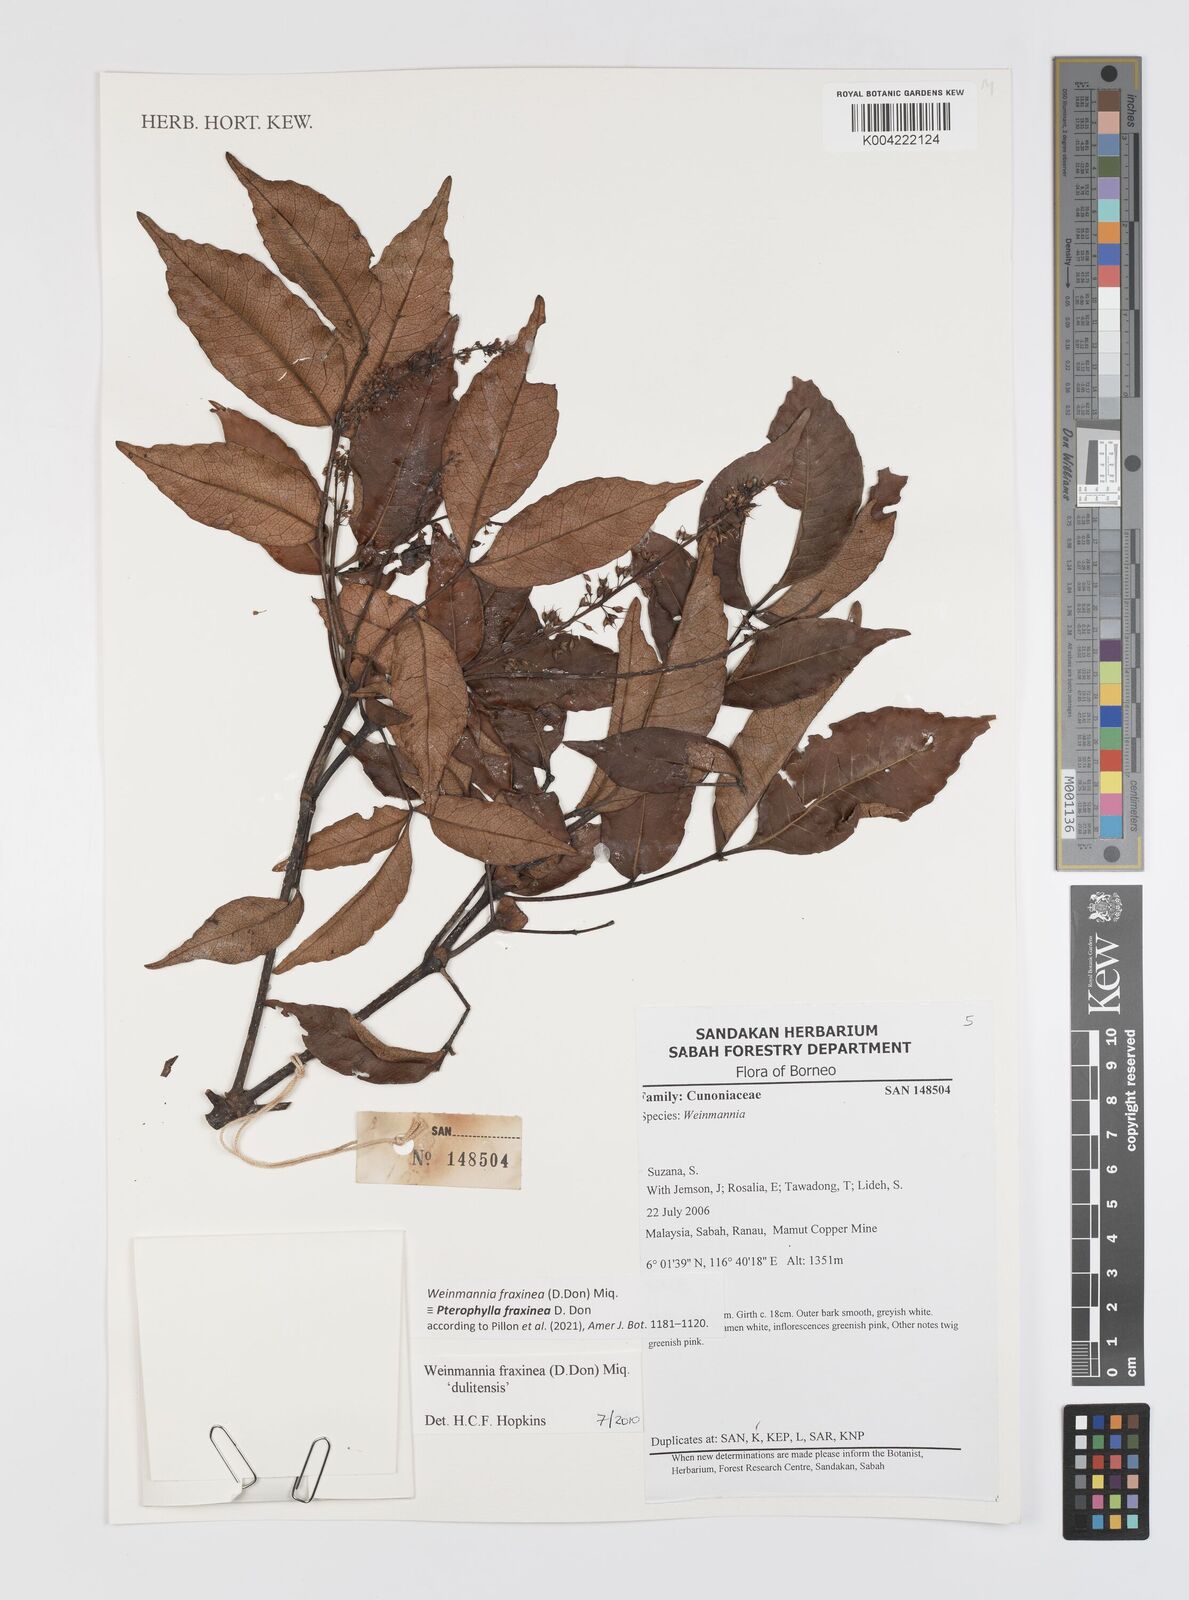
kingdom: Plantae
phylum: Tracheophyta
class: Magnoliopsida
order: Oxalidales
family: Cunoniaceae
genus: Pterophylla
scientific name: Pterophylla fraxinea
